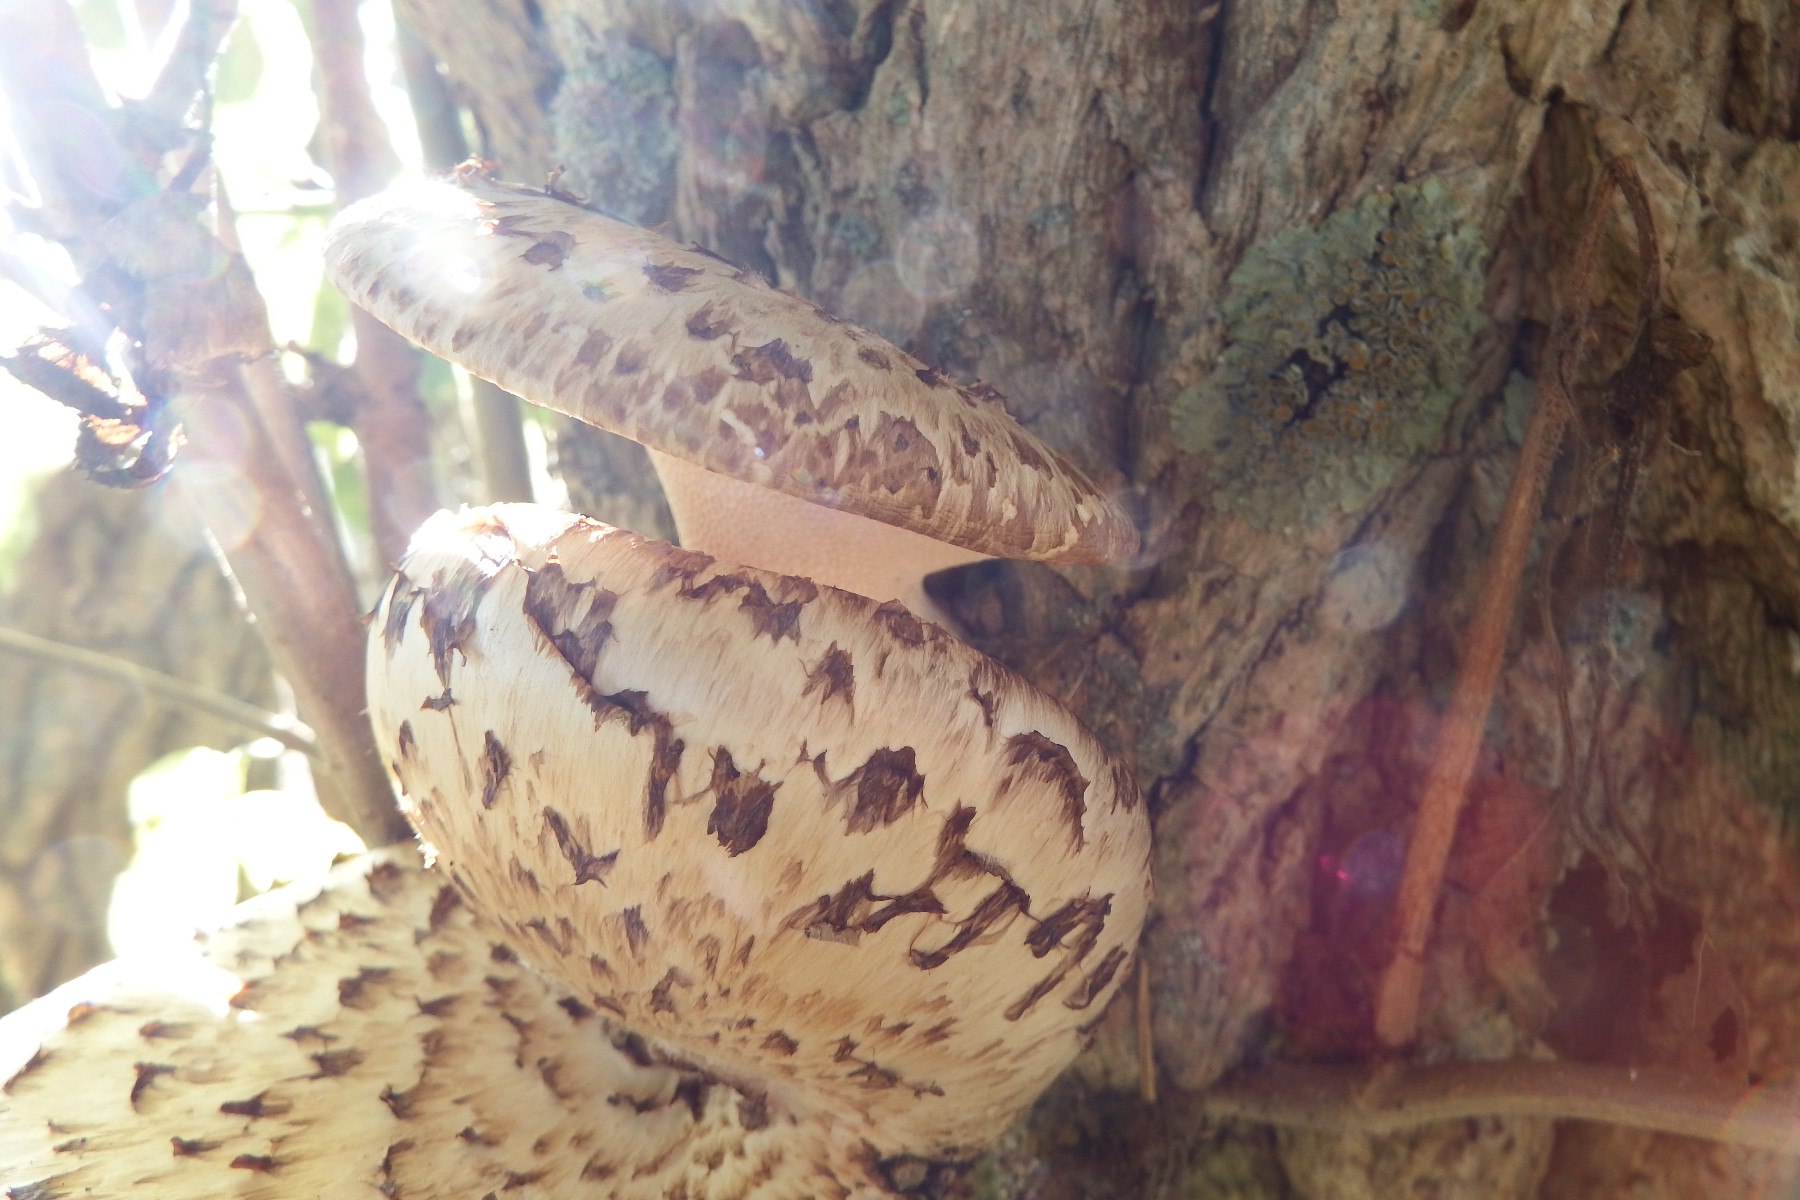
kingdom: Fungi
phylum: Basidiomycota
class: Agaricomycetes
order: Polyporales
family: Polyporaceae
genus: Cerioporus
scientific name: Cerioporus squamosus
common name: skællet stilkporesvamp
